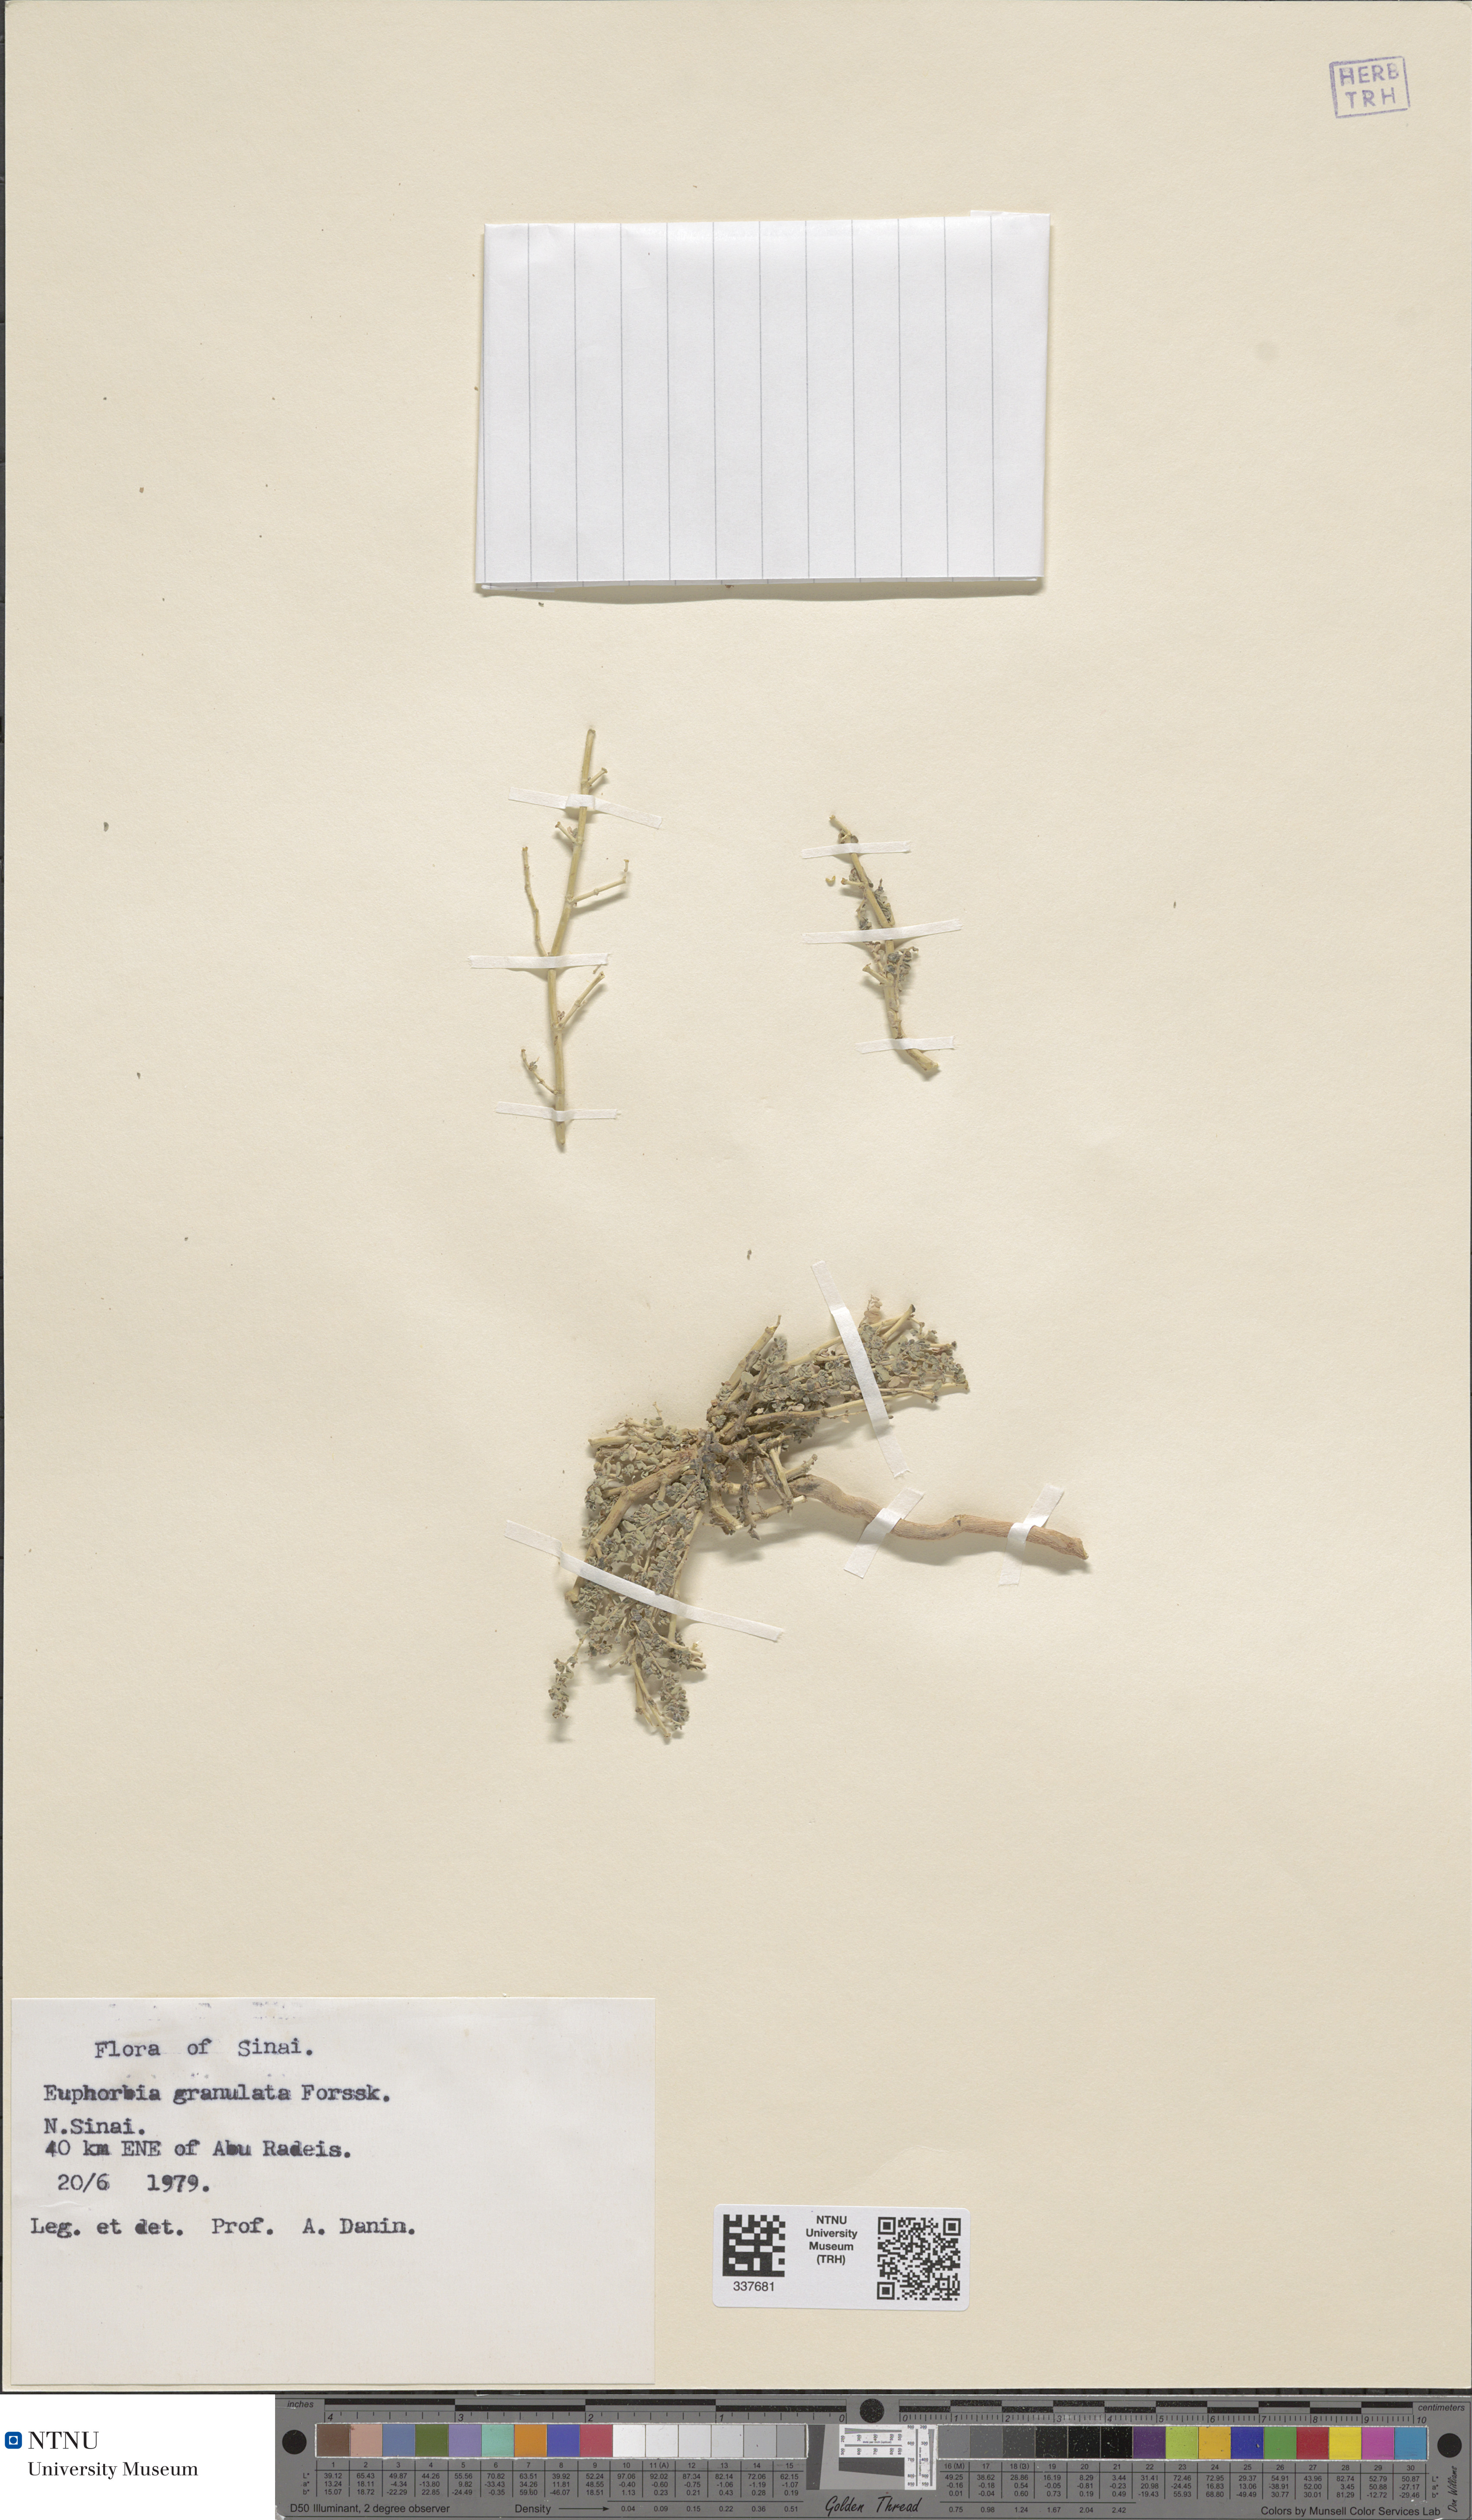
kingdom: Plantae
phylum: Tracheophyta
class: Magnoliopsida
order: Malpighiales
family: Euphorbiaceae
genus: Euphorbia
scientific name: Euphorbia granulata
